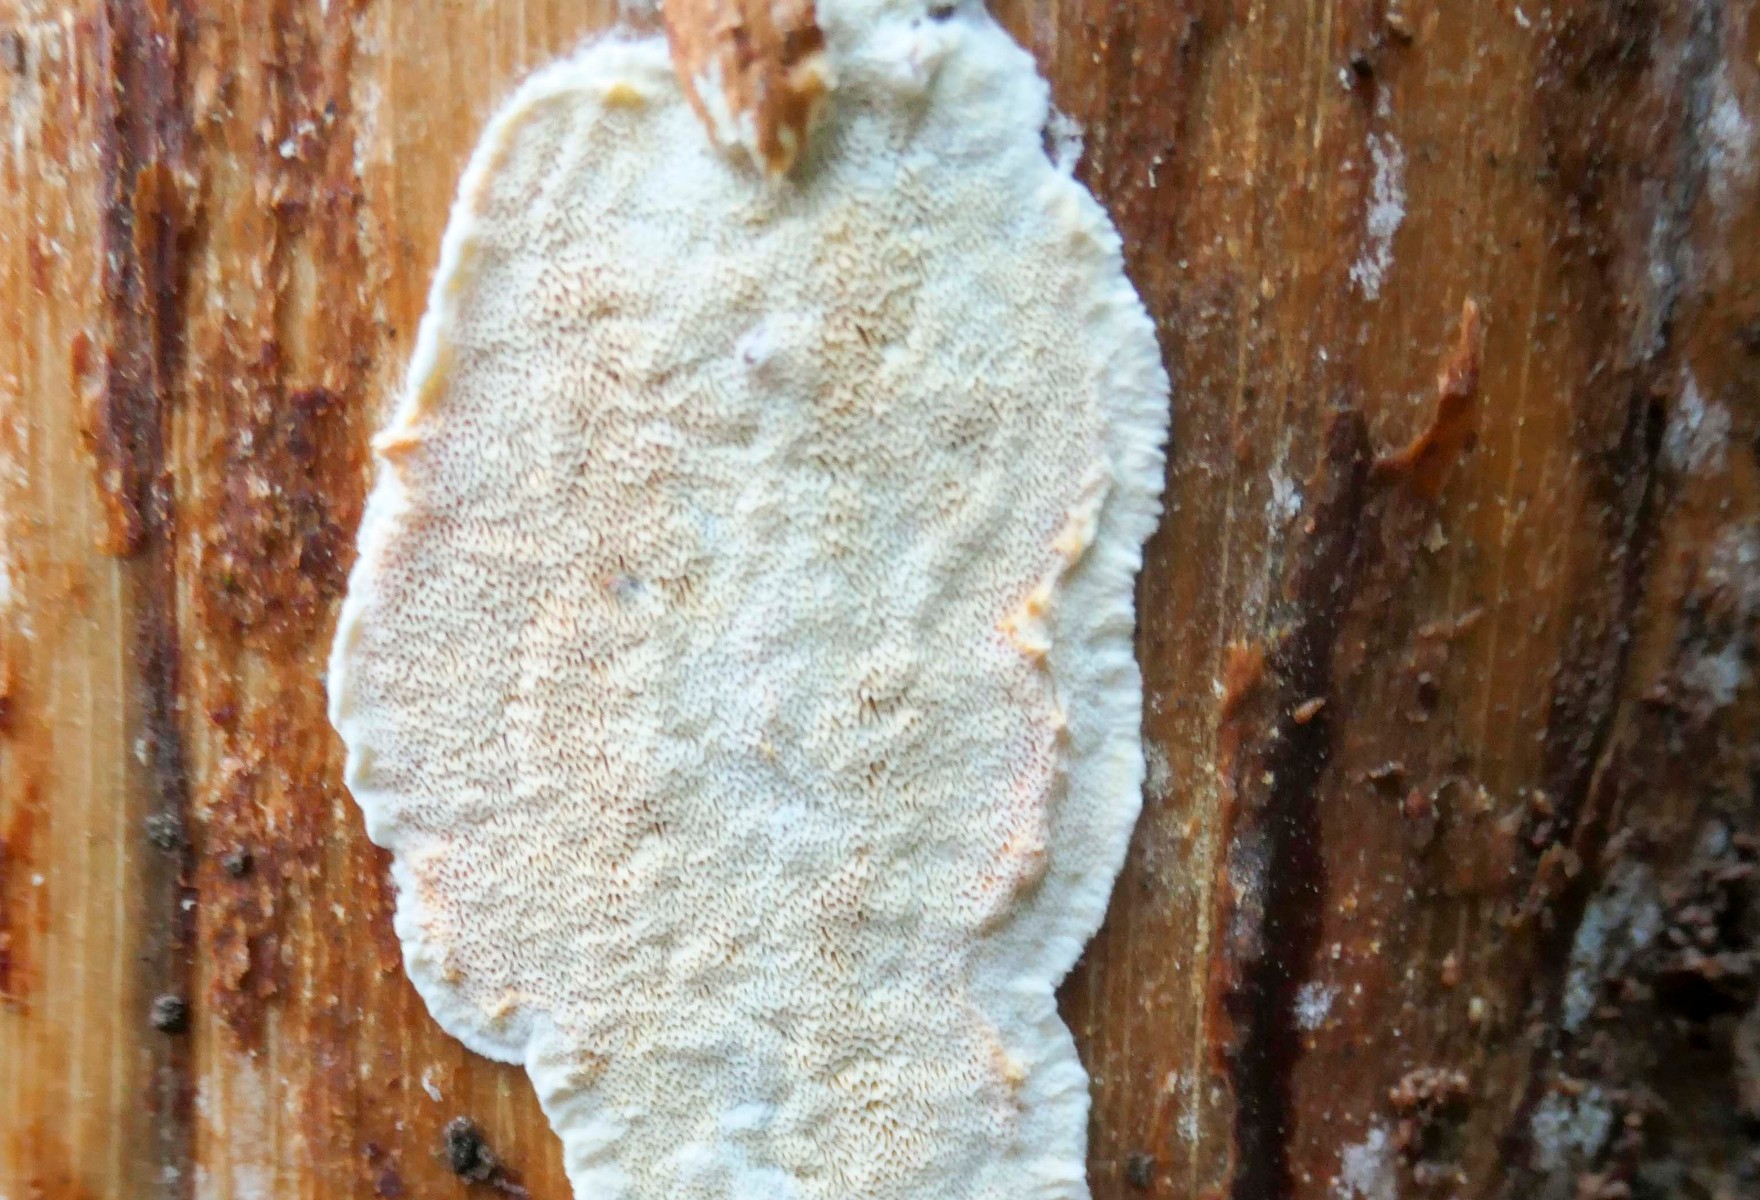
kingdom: Fungi
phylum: Basidiomycota
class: Agaricomycetes
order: Polyporales
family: Incrustoporiaceae
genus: Skeletocutis
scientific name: Skeletocutis amorpha
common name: orange krystalporesvamp
